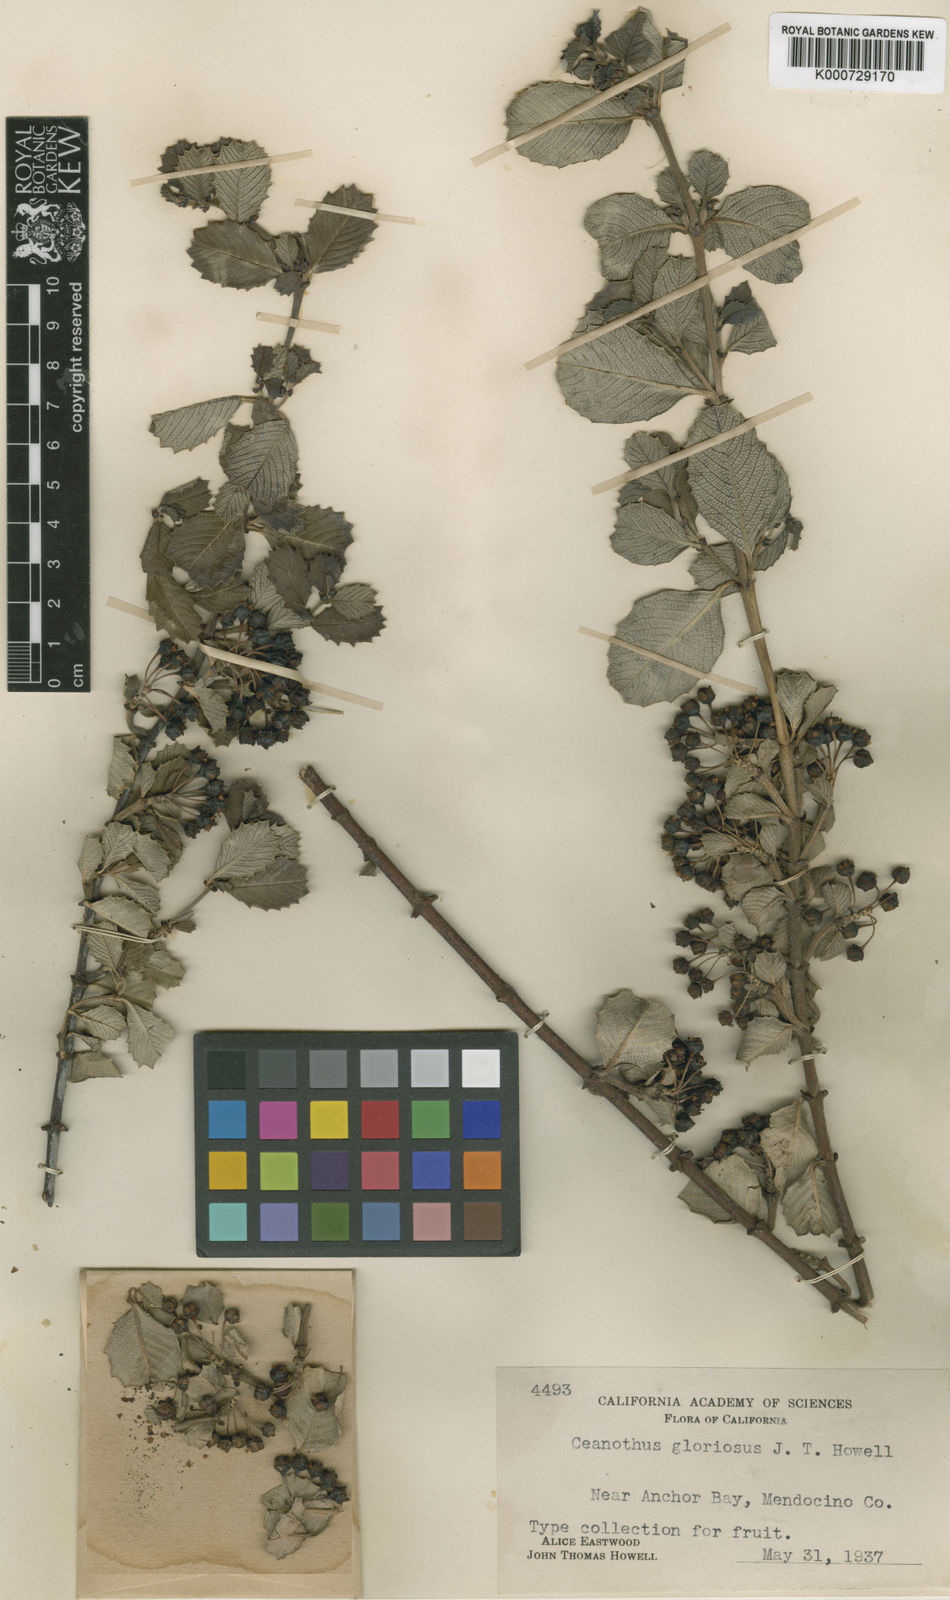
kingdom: Plantae
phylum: Tracheophyta
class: Magnoliopsida
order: Rosales
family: Rhamnaceae
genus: Ceanothus
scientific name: Ceanothus gloriosus
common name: Point reyes ceanothus
